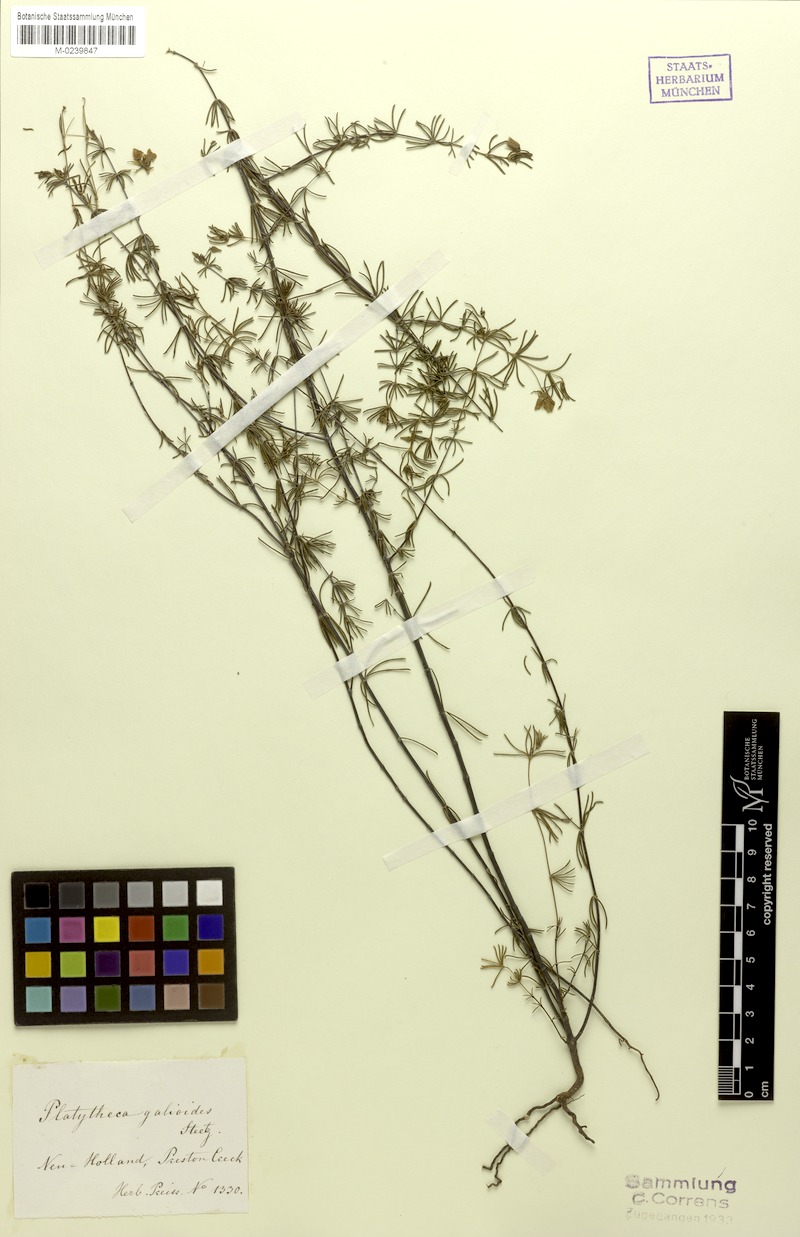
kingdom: Plantae
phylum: Tracheophyta
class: Magnoliopsida
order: Oxalidales
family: Elaeocarpaceae
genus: Platytheca
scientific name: Platytheca galioides
